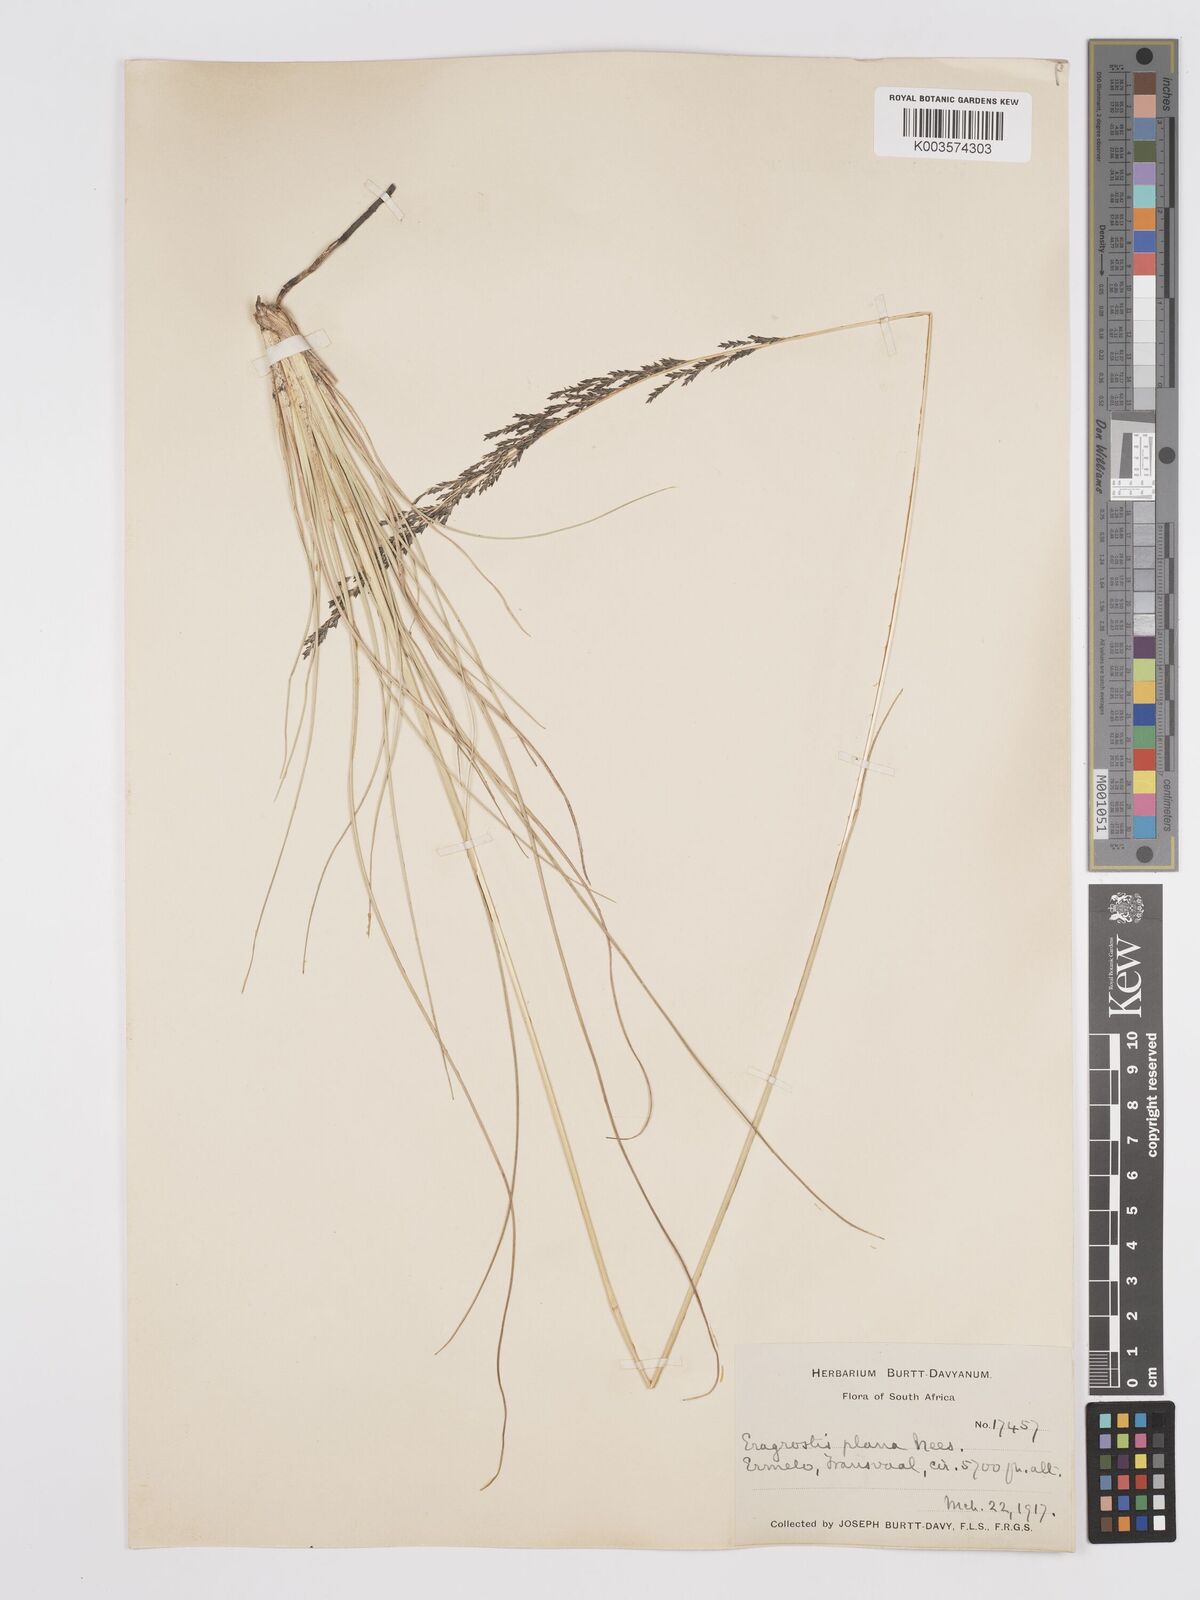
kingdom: Plantae
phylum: Tracheophyta
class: Liliopsida
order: Poales
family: Poaceae
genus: Eragrostis
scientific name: Eragrostis plana
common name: South african lovegrass
